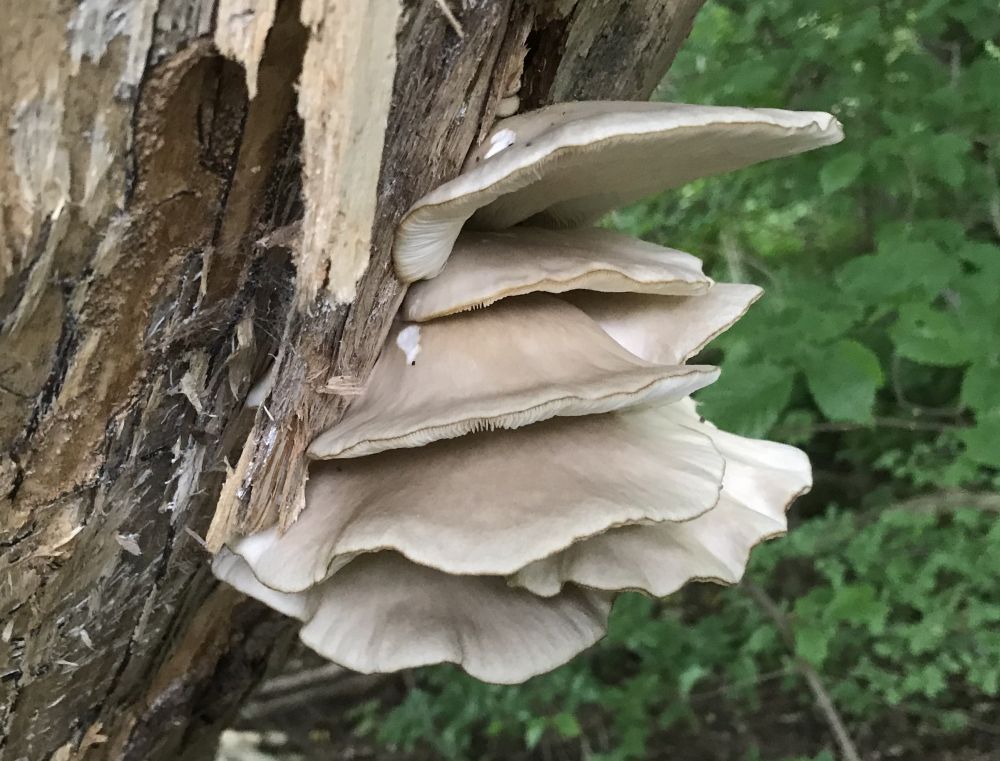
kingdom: Fungi
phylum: Basidiomycota
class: Agaricomycetes
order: Agaricales
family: Pleurotaceae
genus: Pleurotus
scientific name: Pleurotus pulmonarius
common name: sommer-østershat
